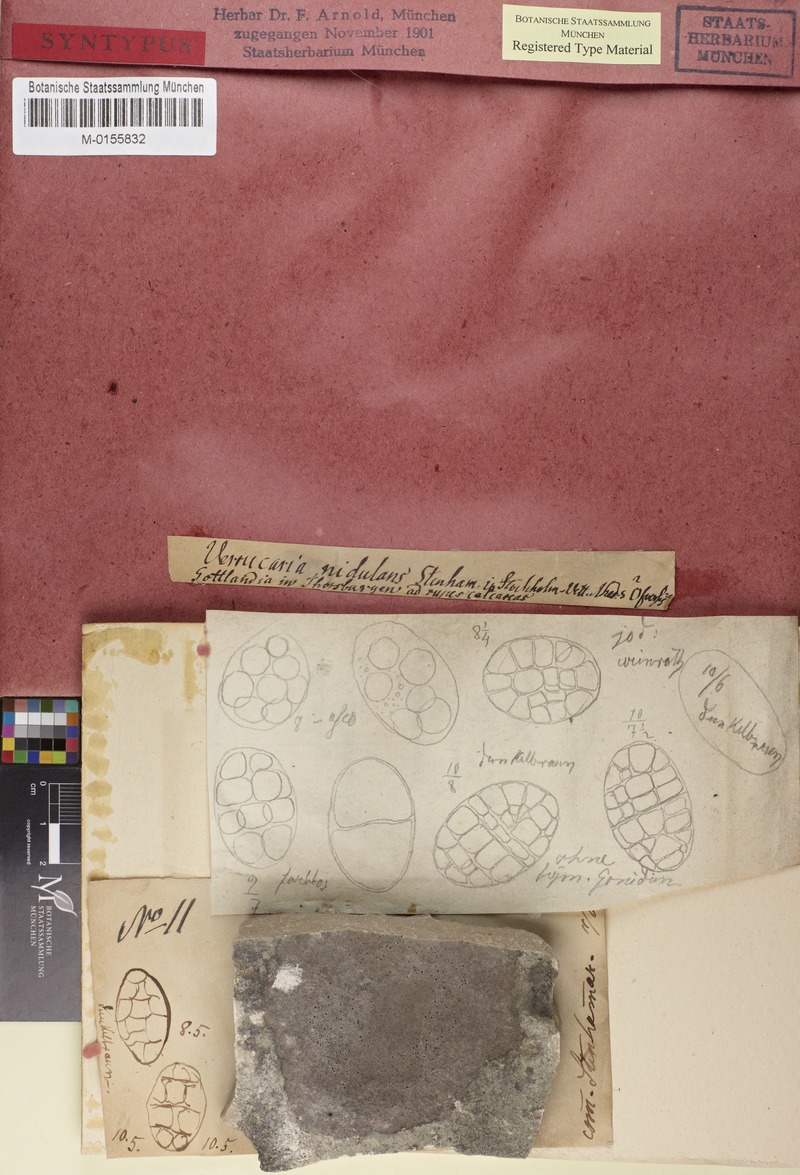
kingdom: Fungi
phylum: Ascomycota
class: Eurotiomycetes
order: Verrucariales
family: Verrucariaceae
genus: Polyblastia
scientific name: Polyblastia nidulans
